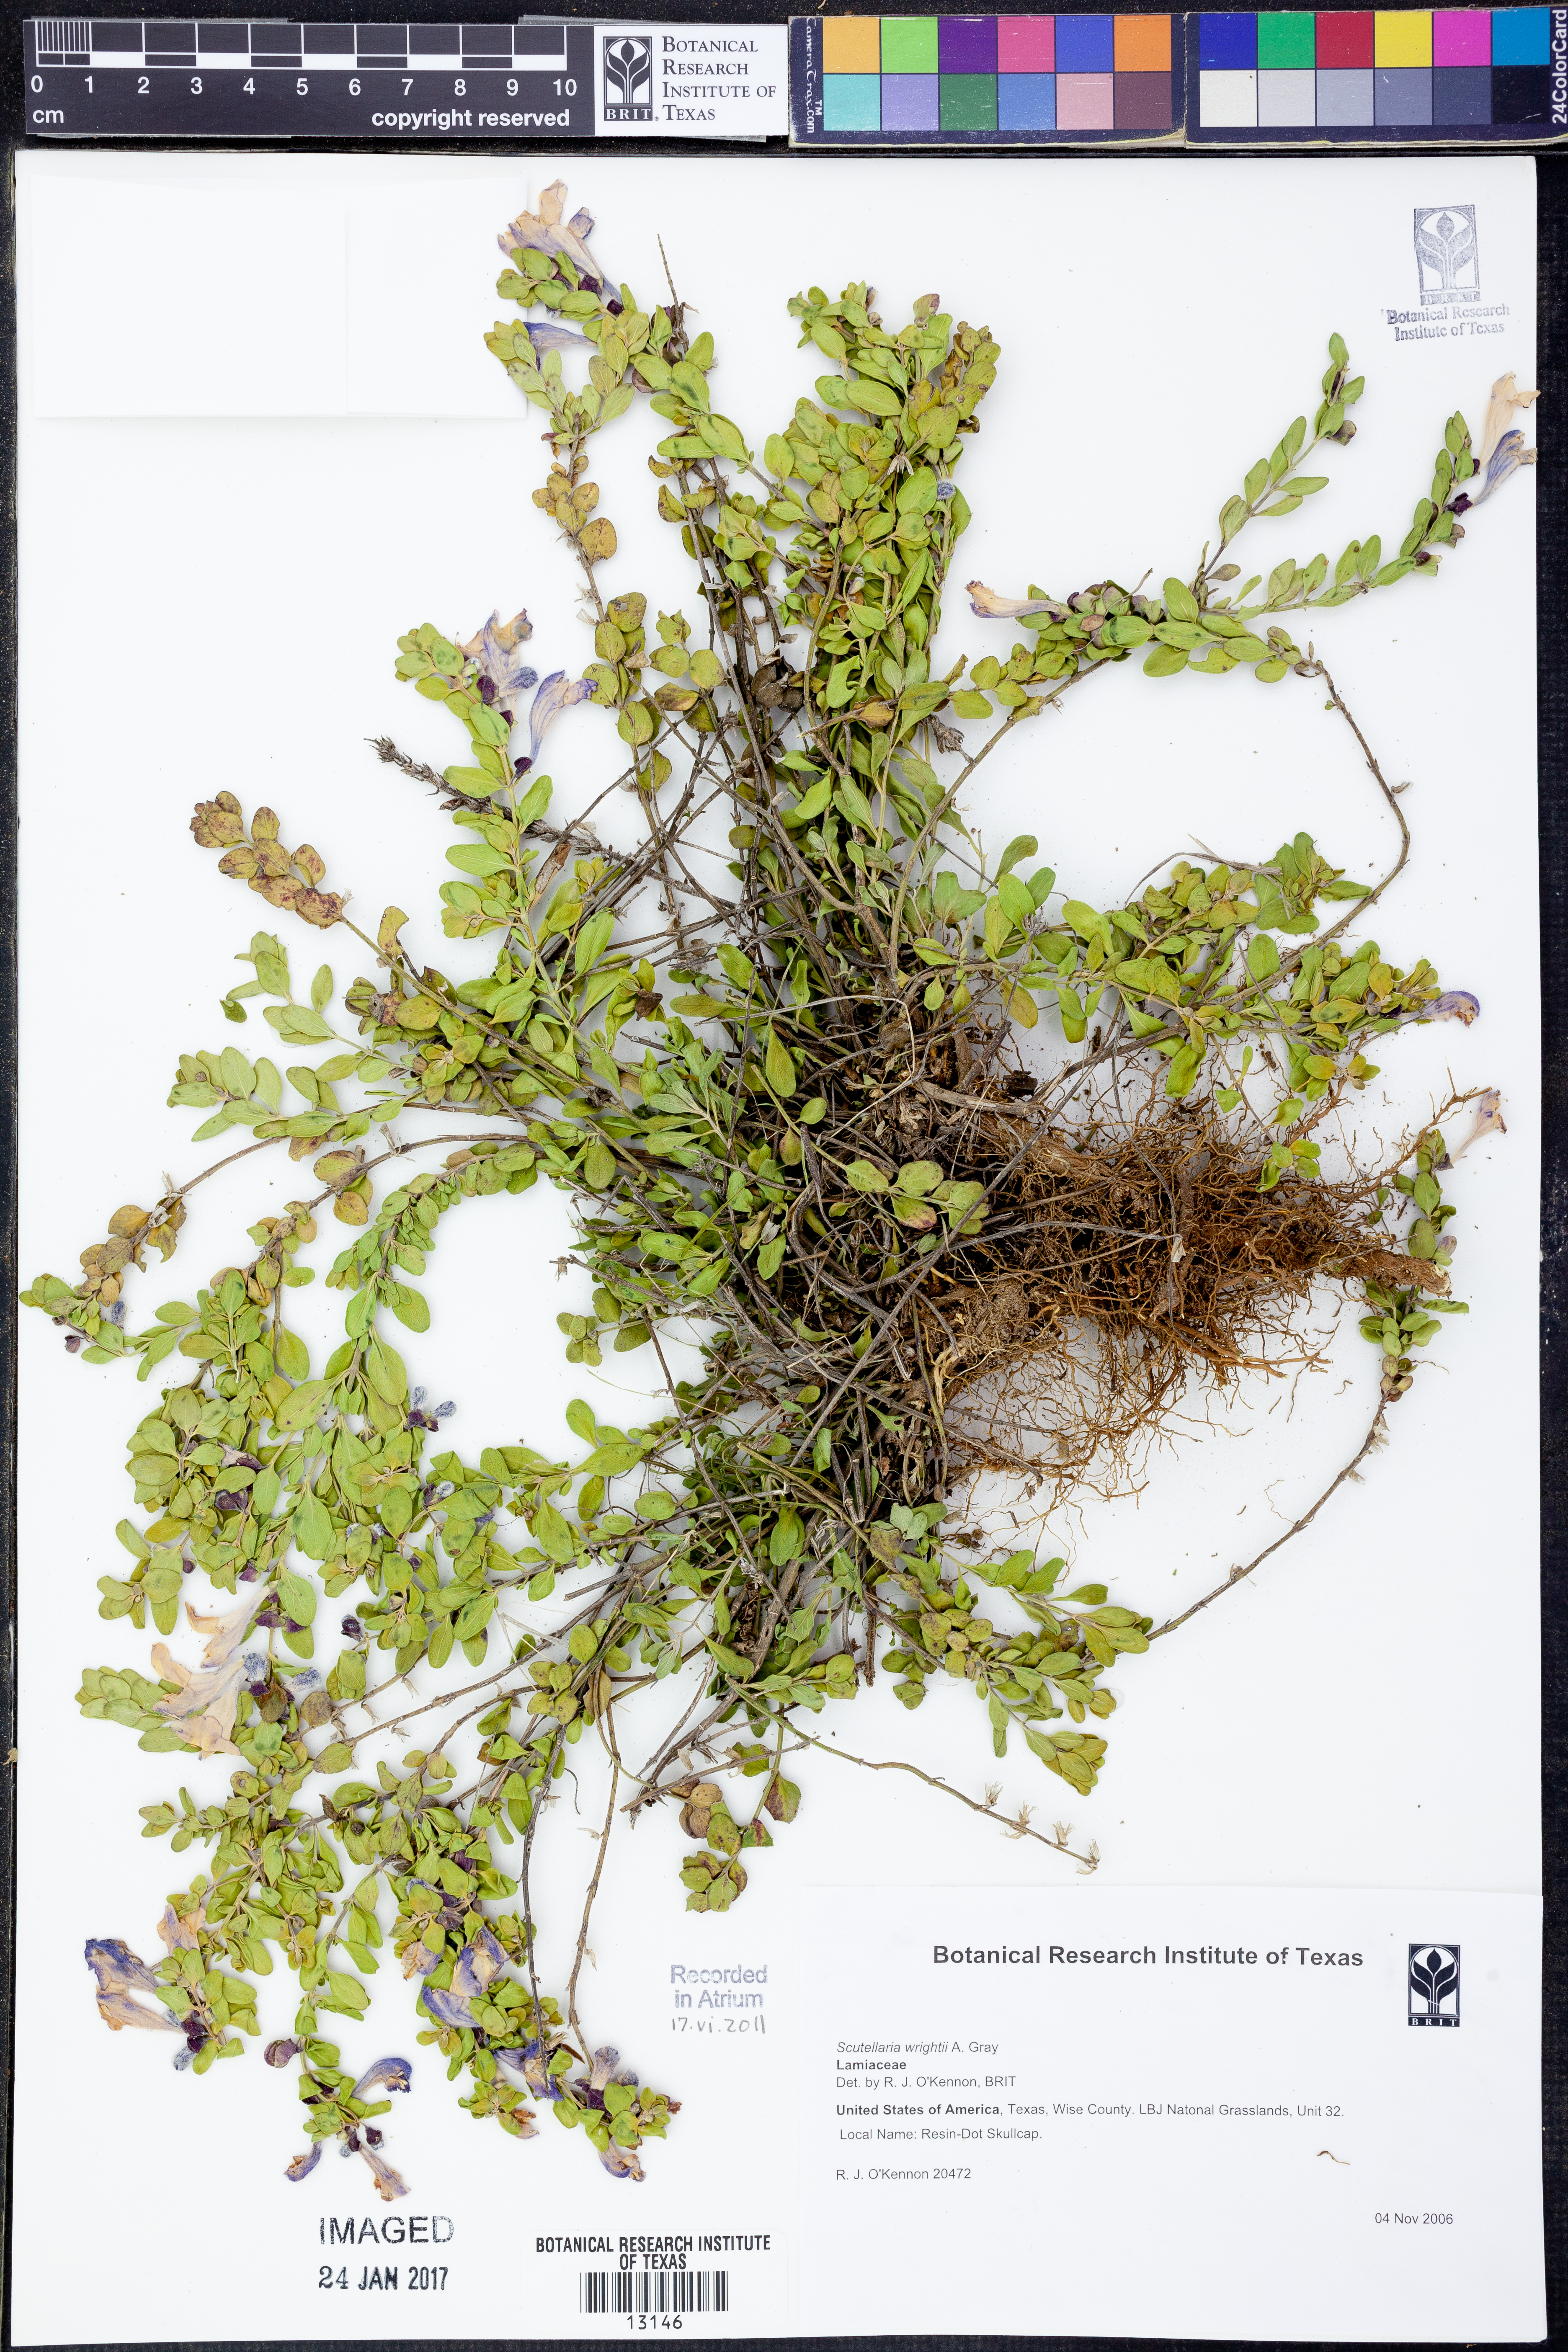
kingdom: Plantae
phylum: Tracheophyta
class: Magnoliopsida
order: Lamiales
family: Lamiaceae
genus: Scutellaria
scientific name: Scutellaria wrightii
